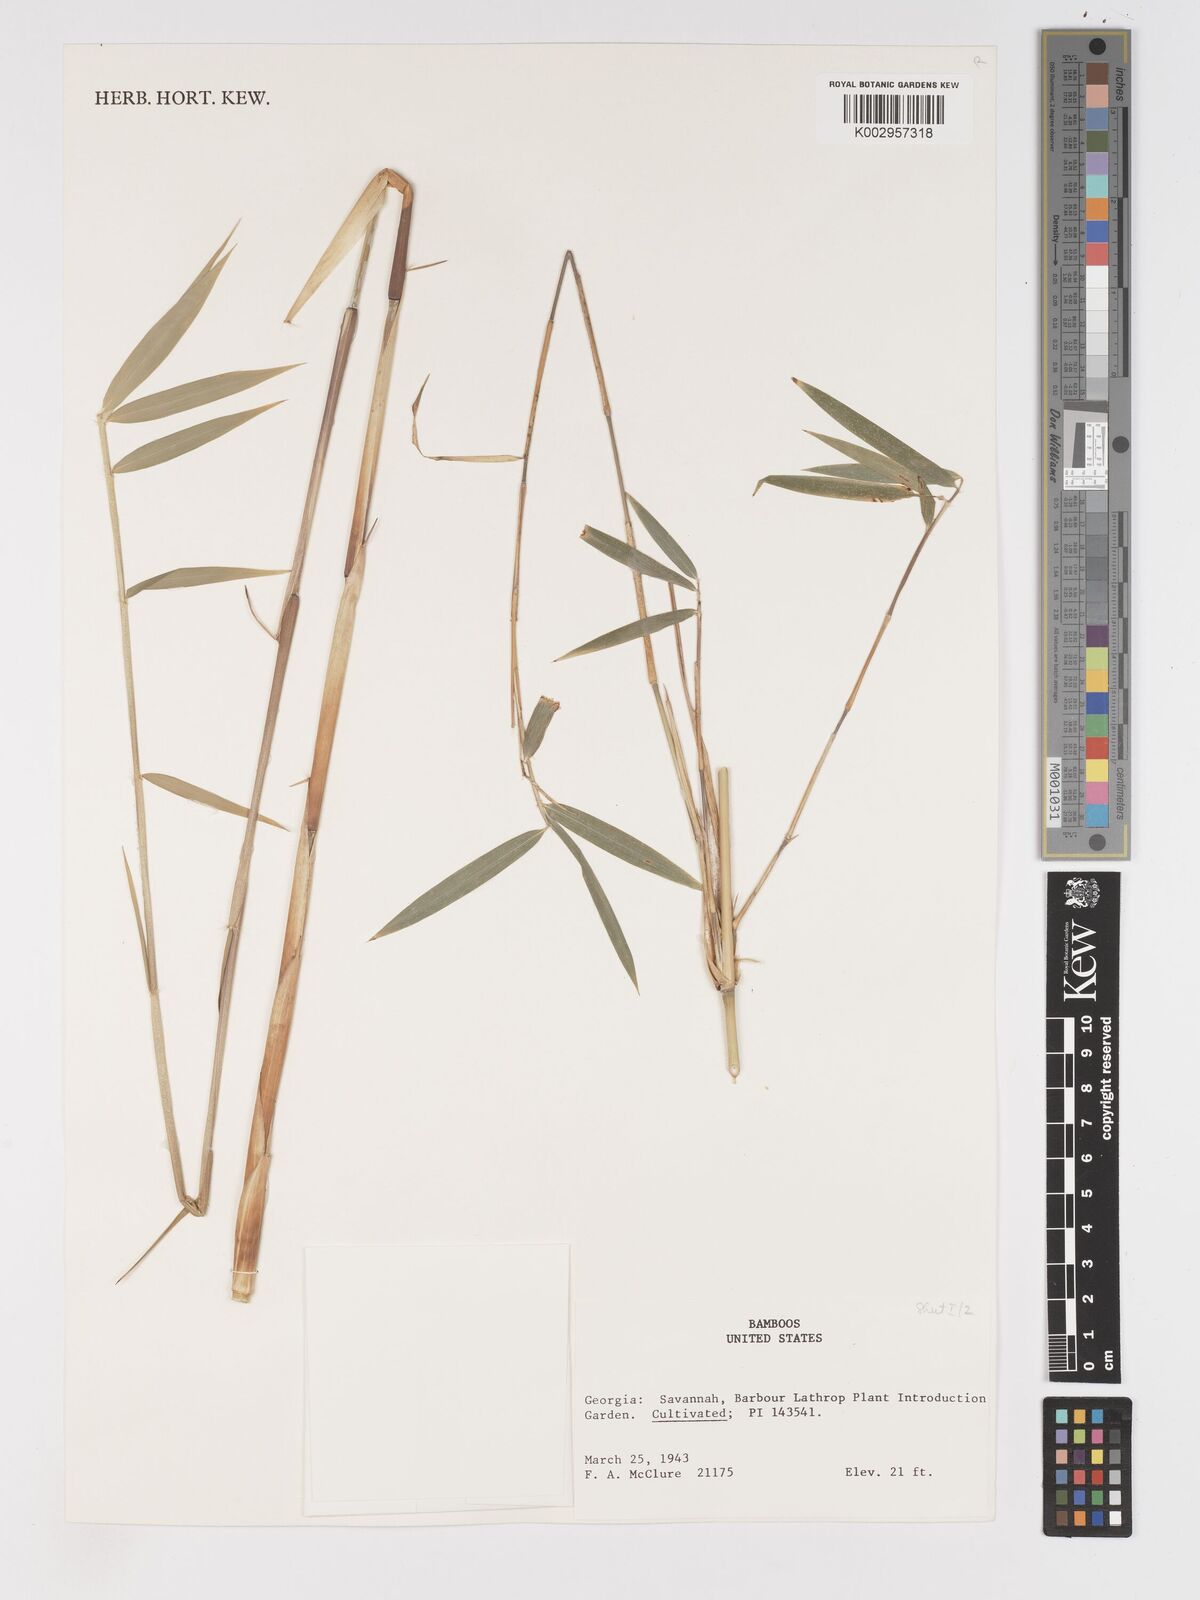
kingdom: Plantae
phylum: Tracheophyta
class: Liliopsida
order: Poales
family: Poaceae
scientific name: Poaceae
